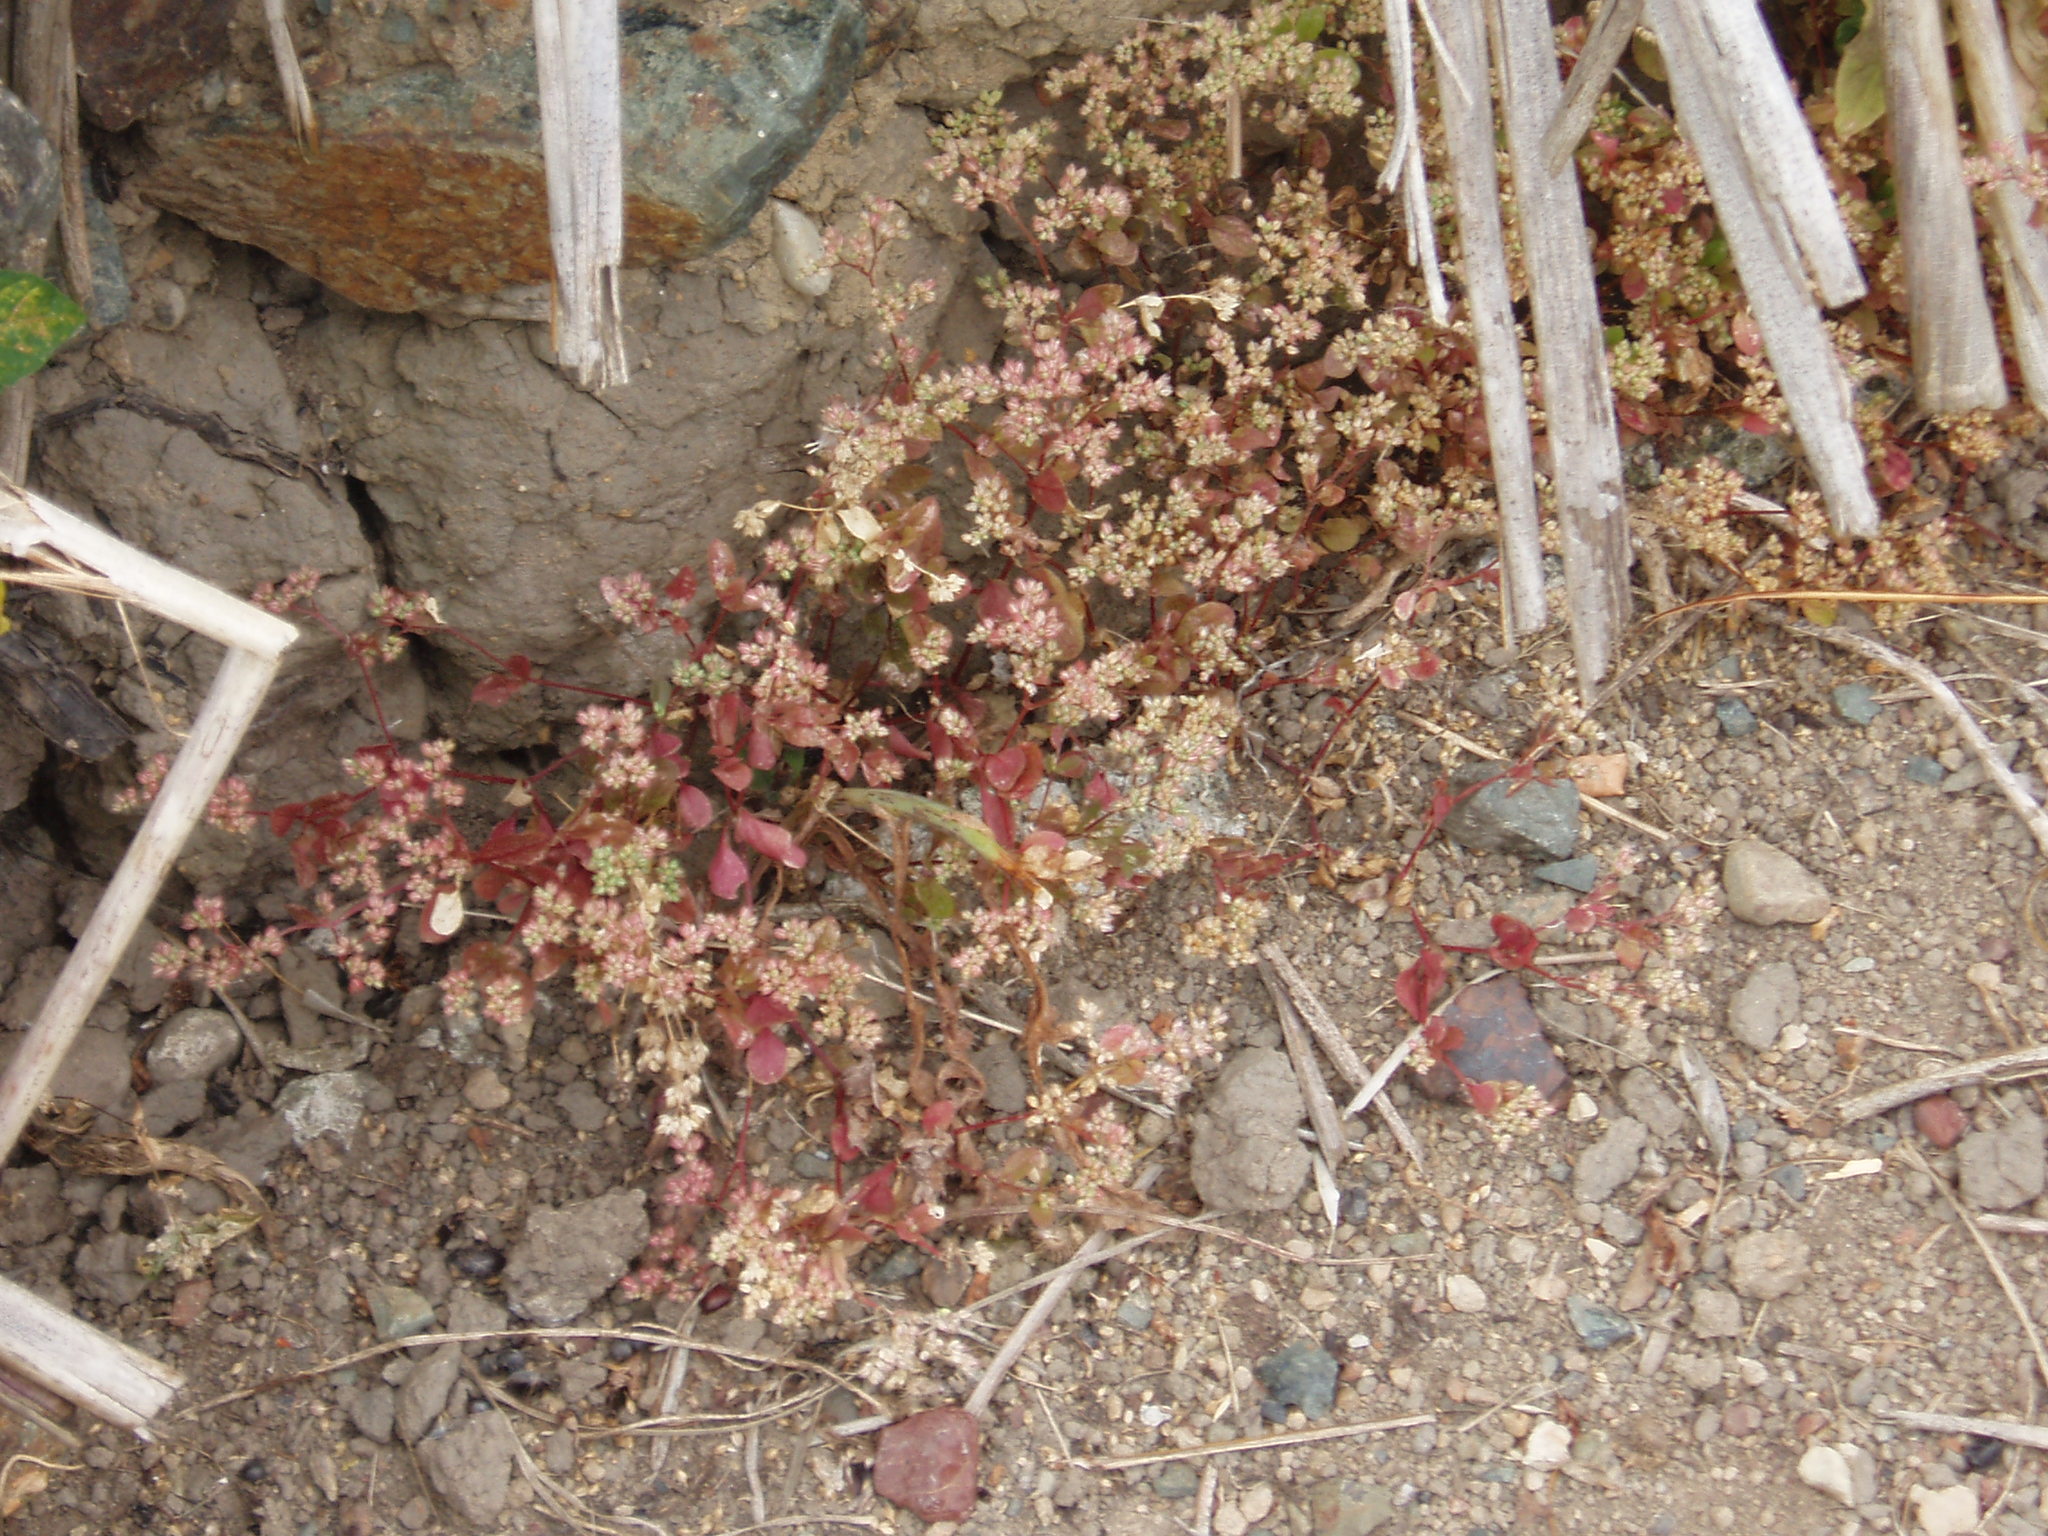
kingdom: Plantae
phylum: Tracheophyta
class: Magnoliopsida
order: Caryophyllales
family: Caryophyllaceae
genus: Polycarpon
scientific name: Polycarpon tetraphyllum
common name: Four-leaved all-seed
